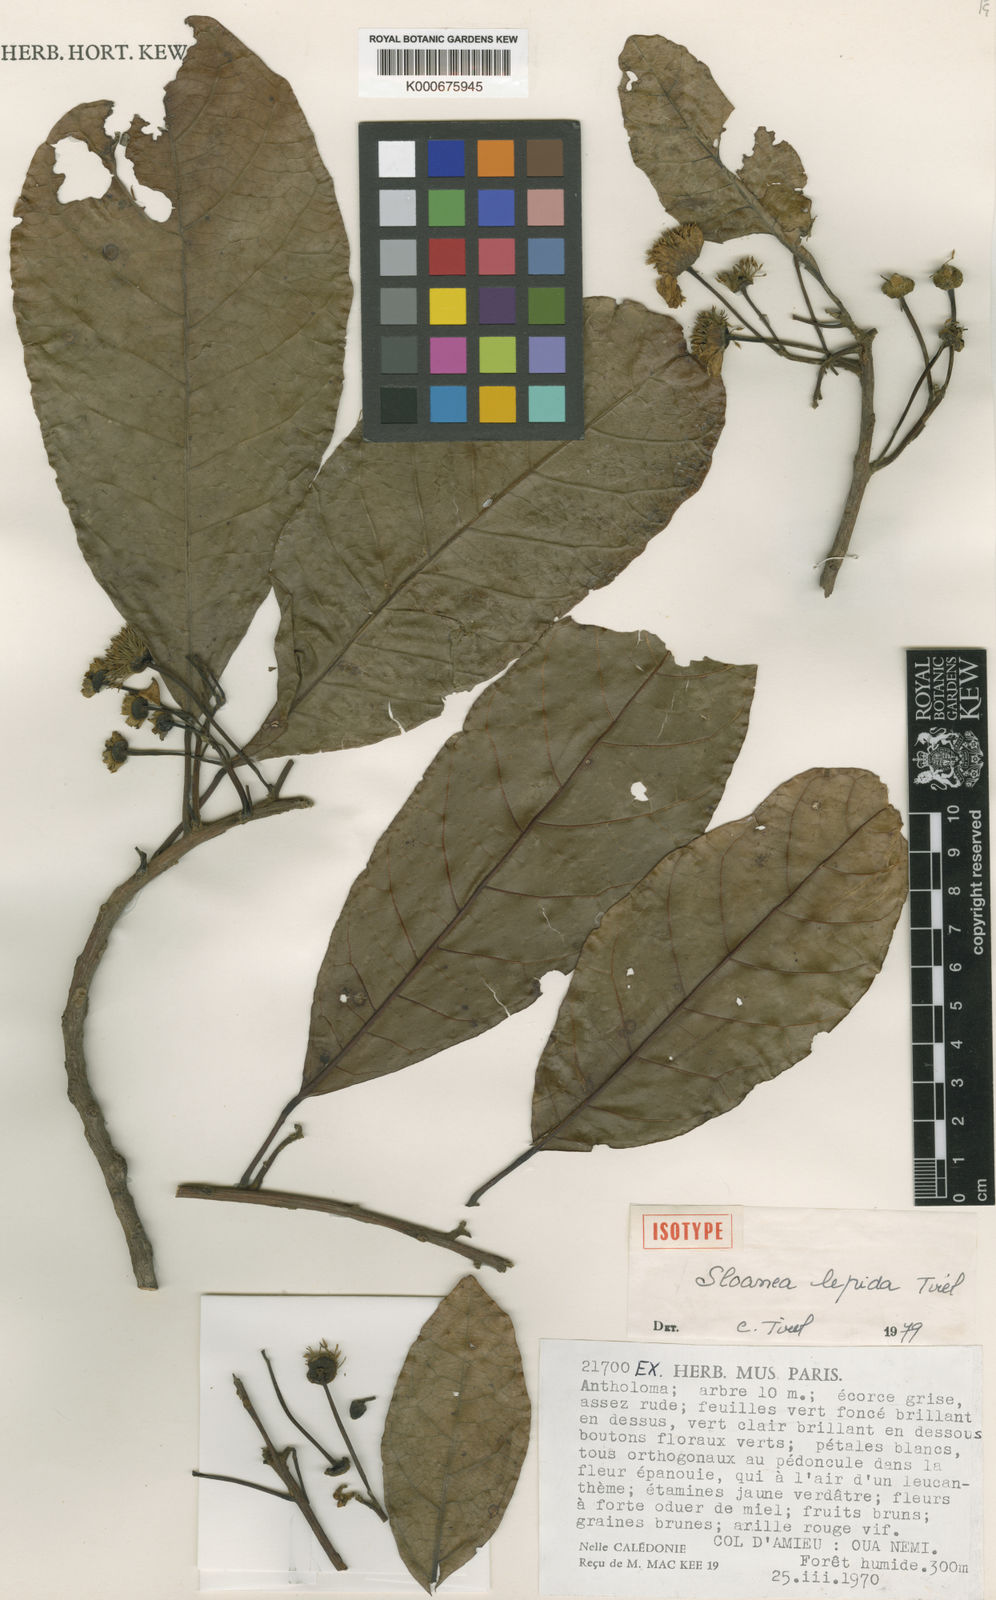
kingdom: Plantae
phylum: Tracheophyta
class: Magnoliopsida
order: Oxalidales
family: Elaeocarpaceae
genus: Sloanea
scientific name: Sloanea lepida
